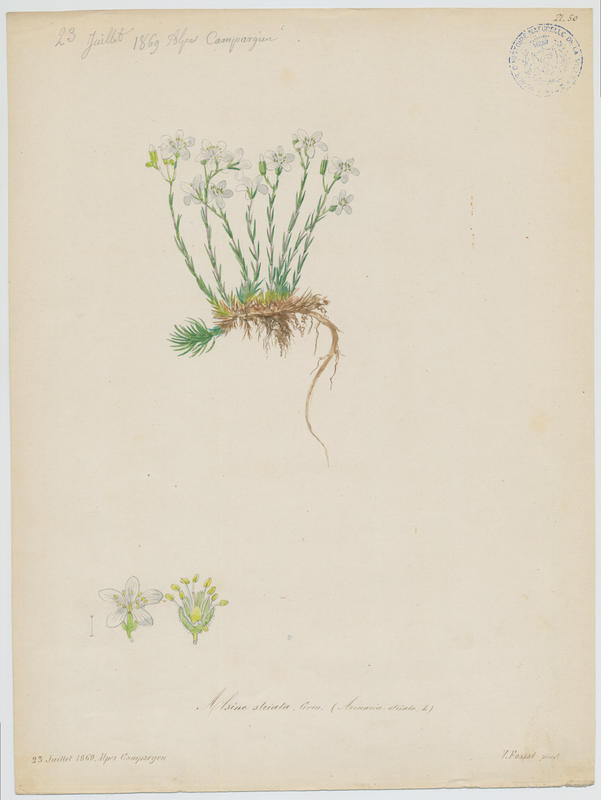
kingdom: Plantae
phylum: Tracheophyta
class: Magnoliopsida
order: Caryophyllales
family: Caryophyllaceae
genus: Cherleria
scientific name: Cherleria laricifolia
